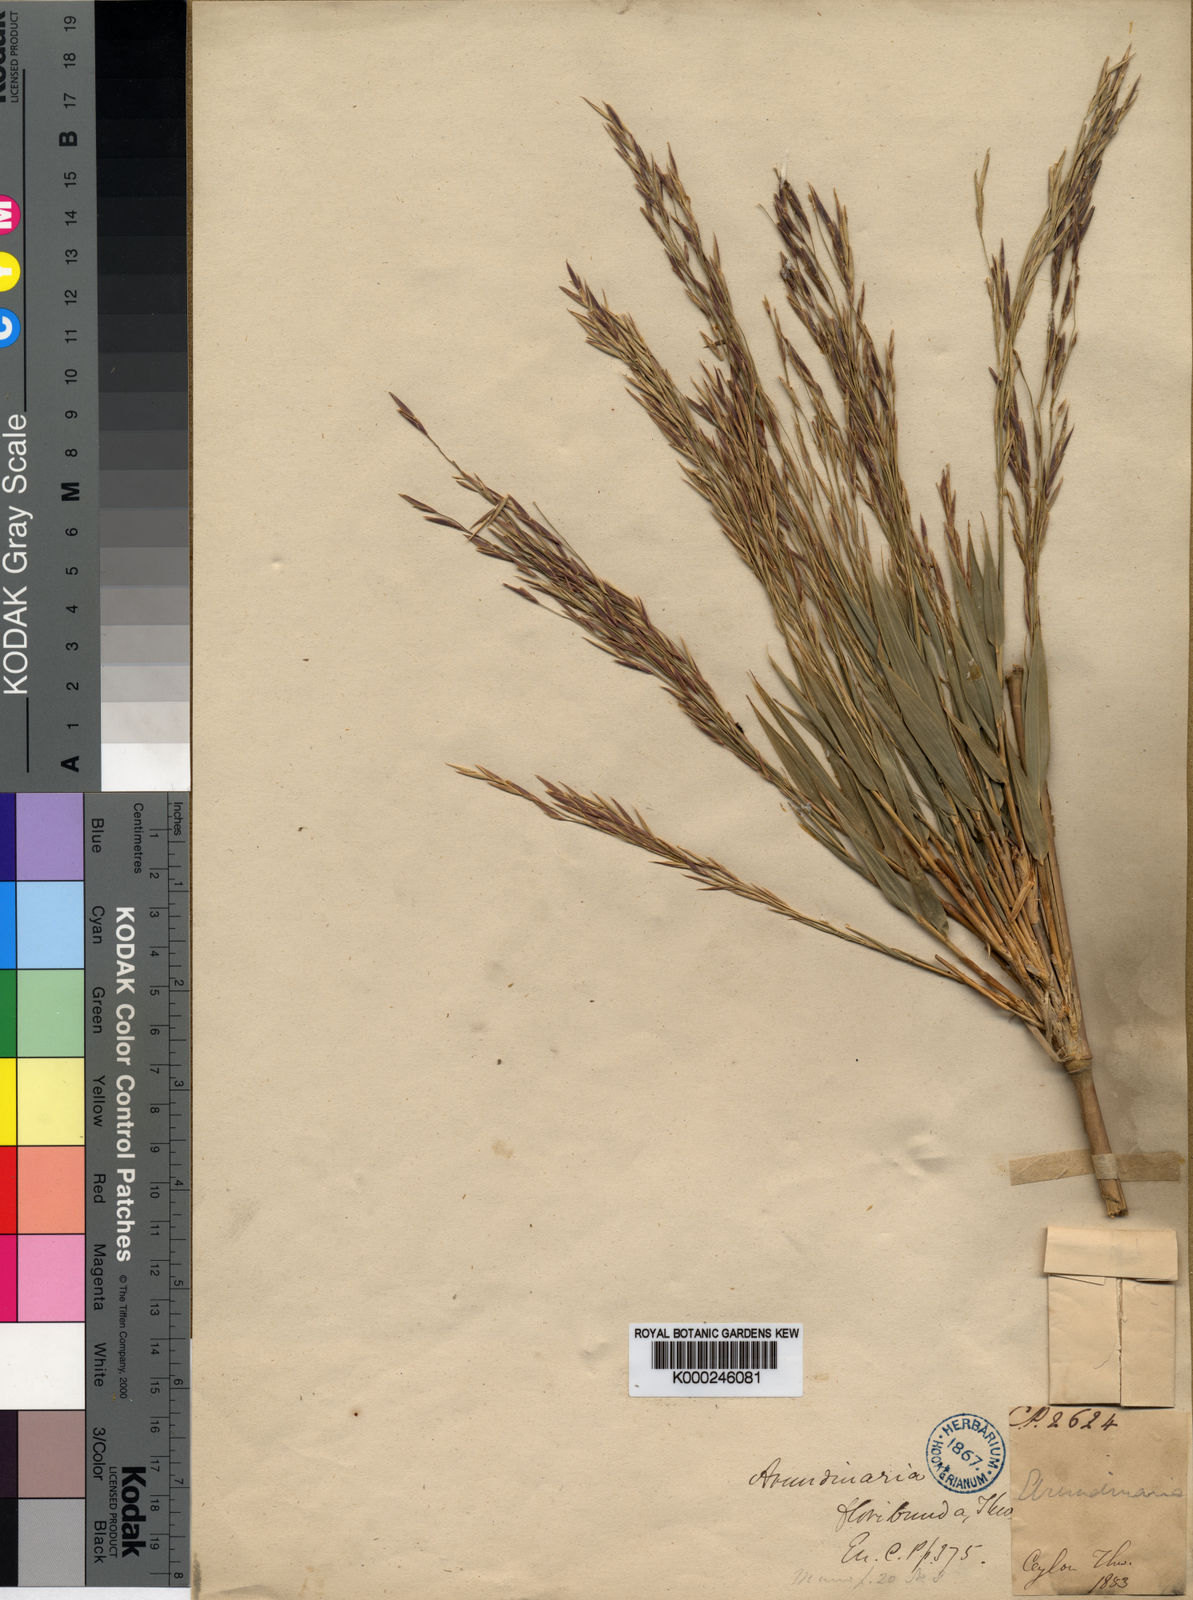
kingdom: Plantae
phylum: Tracheophyta
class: Liliopsida
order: Poales
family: Poaceae
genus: Kuruna
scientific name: Kuruna floribunda
